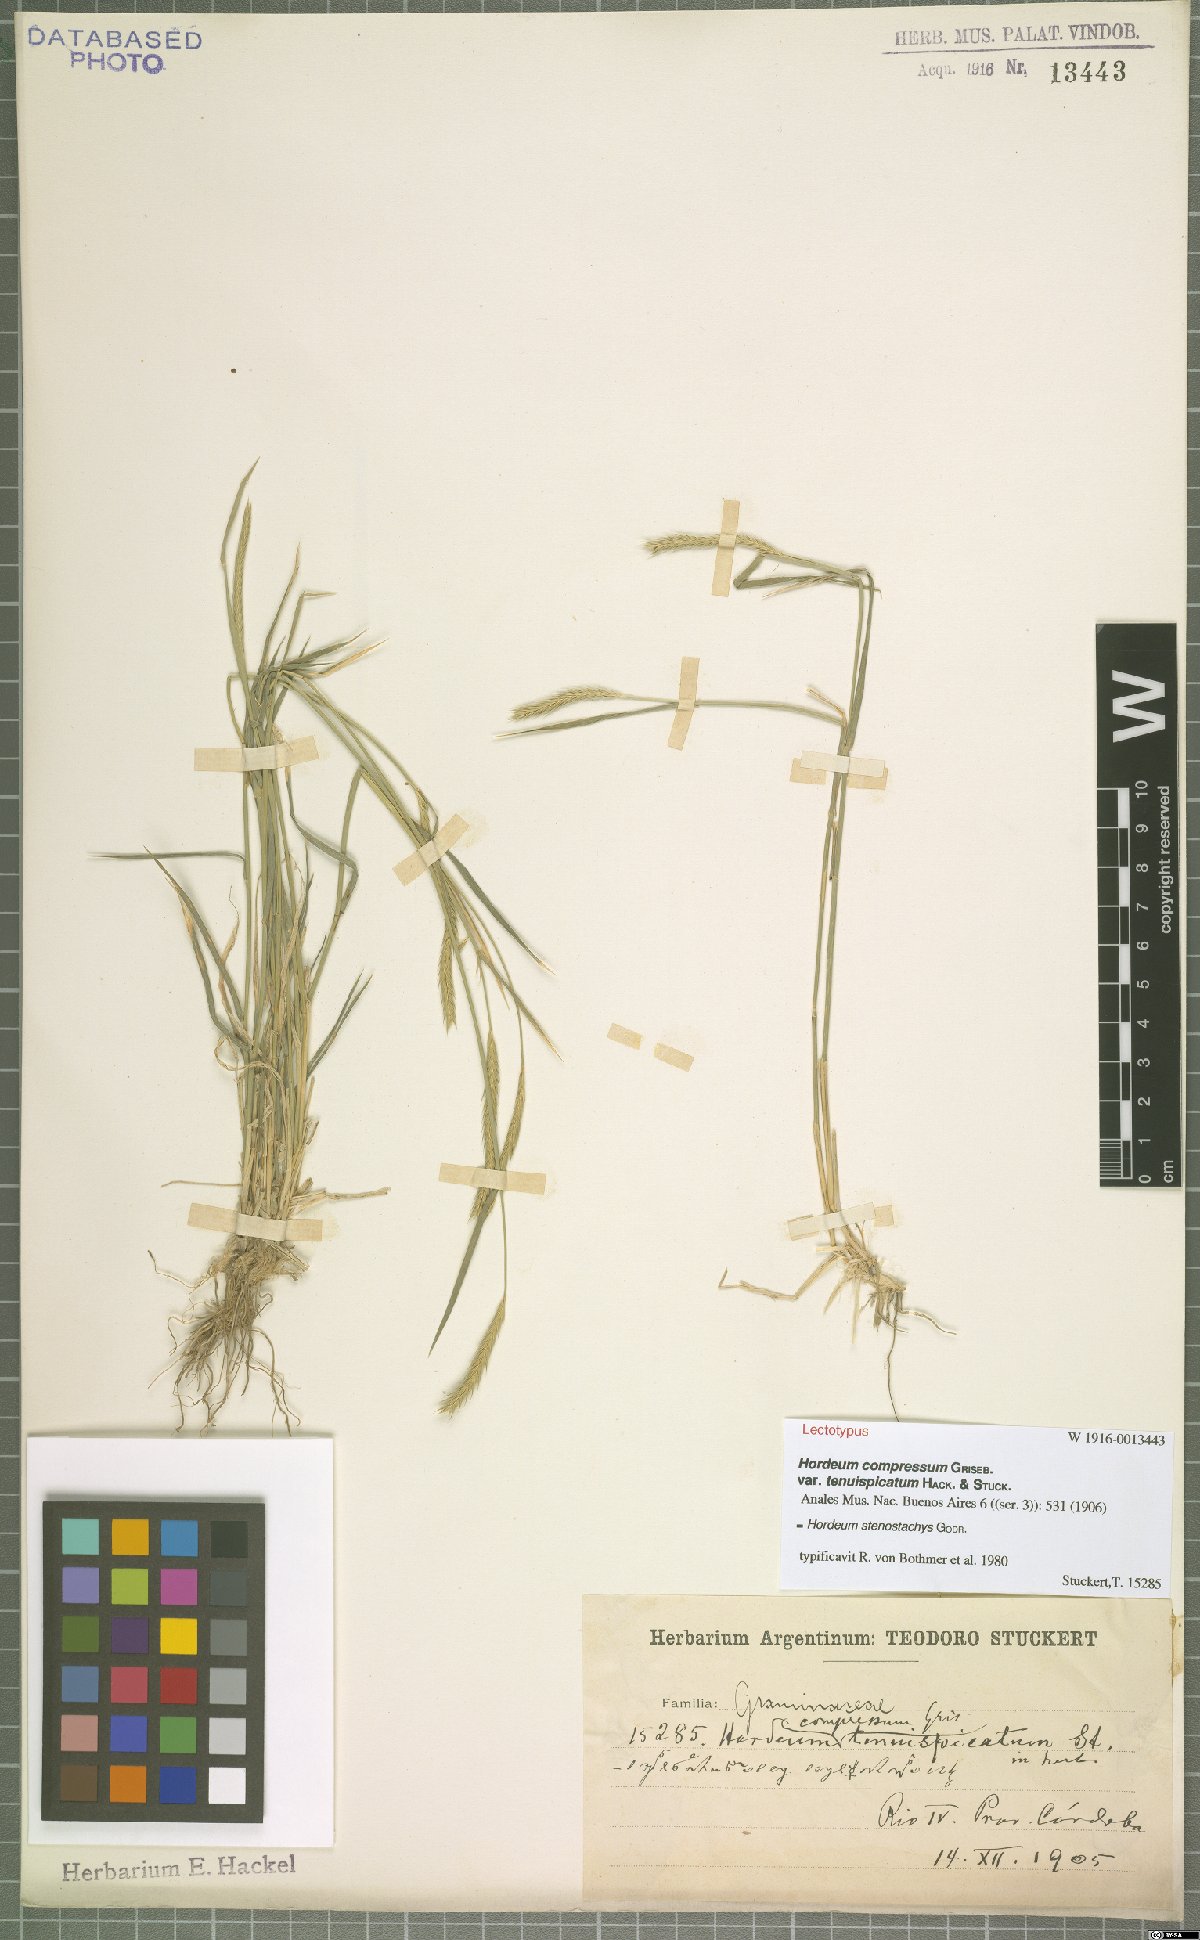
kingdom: Plantae
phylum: Tracheophyta
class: Liliopsida
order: Poales
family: Poaceae
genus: Hordeum
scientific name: Hordeum stenostachys
